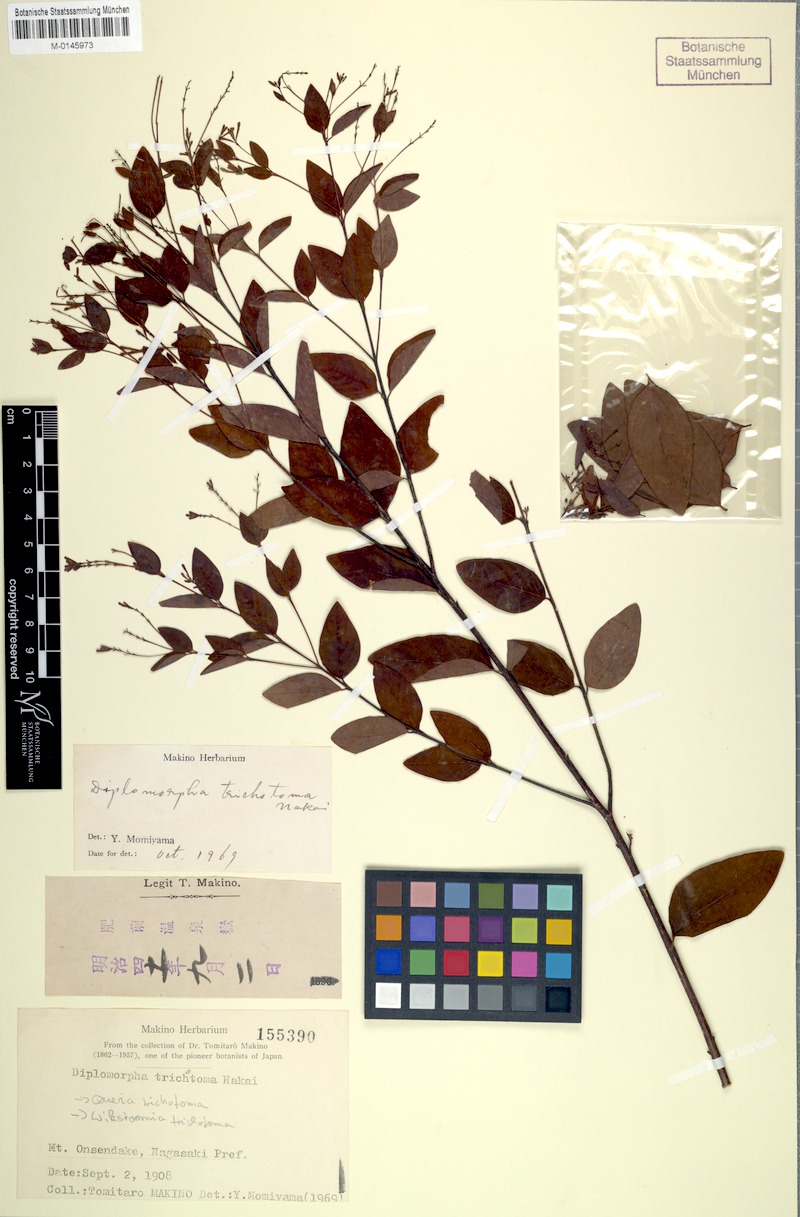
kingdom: Plantae
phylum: Tracheophyta
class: Magnoliopsida
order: Malvales
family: Thymelaeaceae
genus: Wikstroemia
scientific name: Wikstroemia trichotoma
